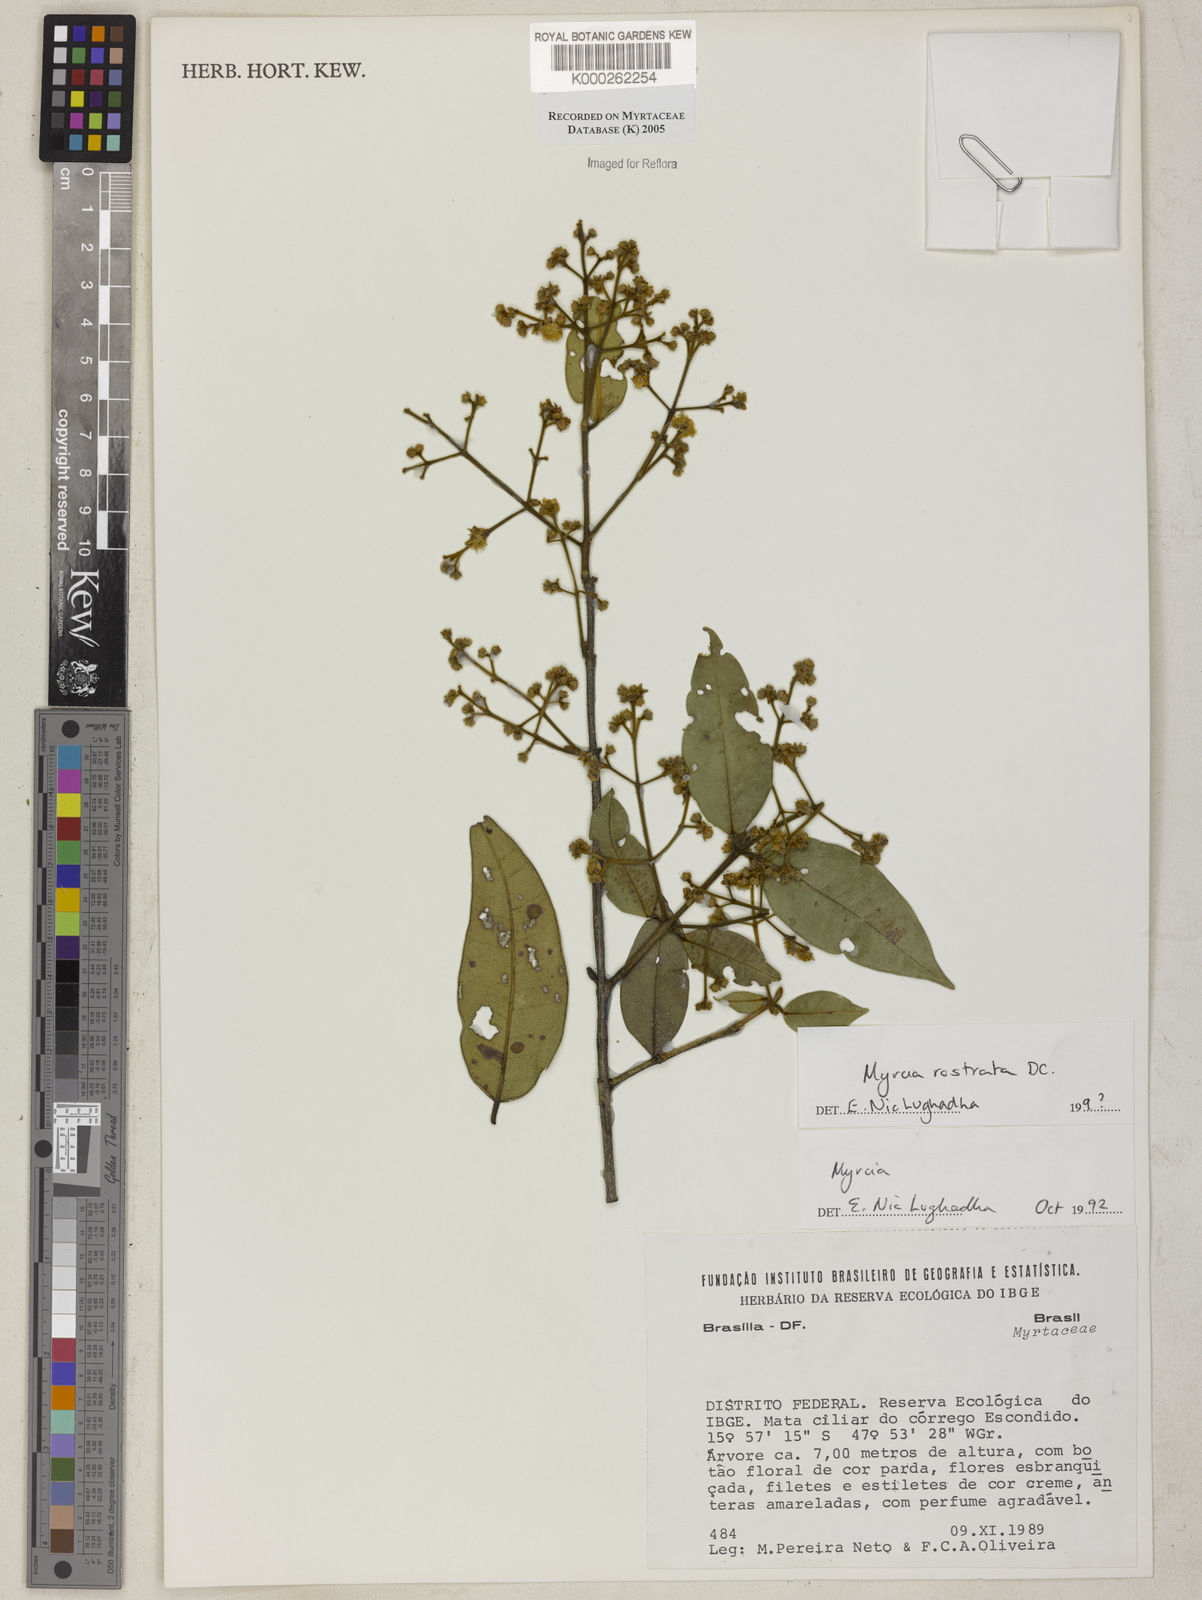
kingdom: Plantae
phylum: Tracheophyta
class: Magnoliopsida
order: Myrtales
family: Myrtaceae
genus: Myrcia
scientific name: Myrcia splendens
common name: Surinam cherry
